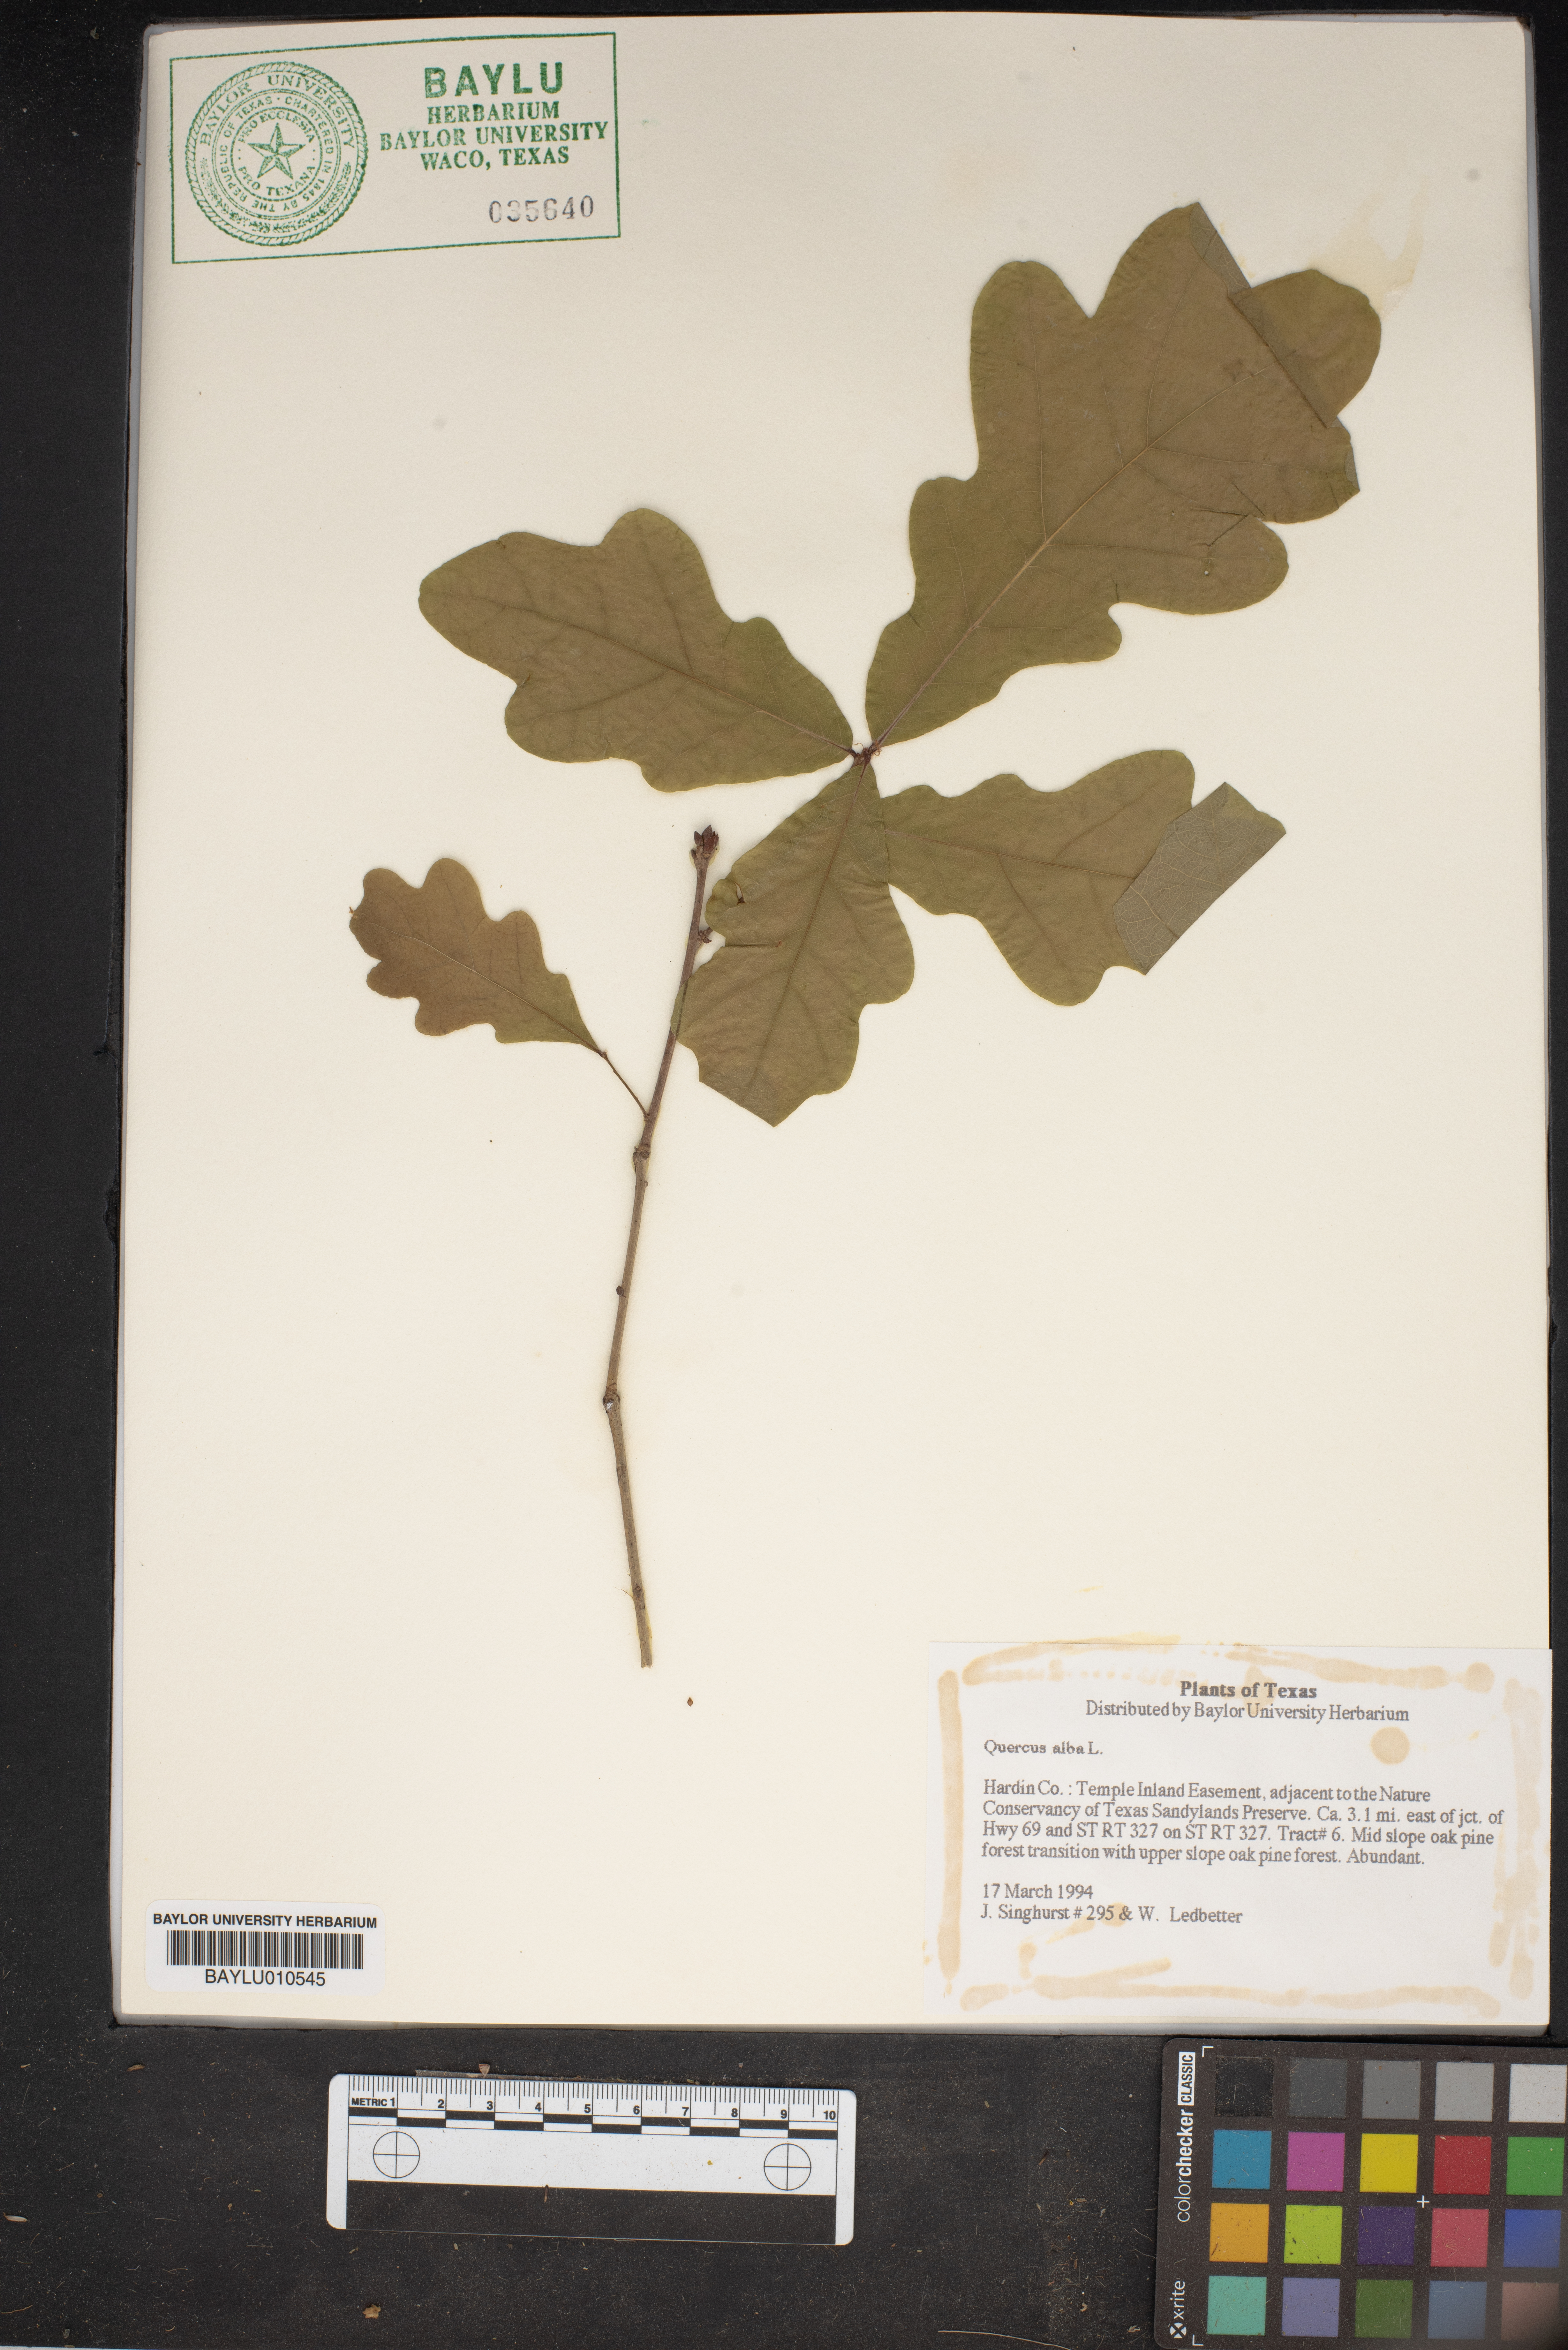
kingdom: Plantae
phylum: Tracheophyta
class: Magnoliopsida
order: Fagales
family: Fagaceae
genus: Quercus
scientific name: Quercus alba
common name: White oak
